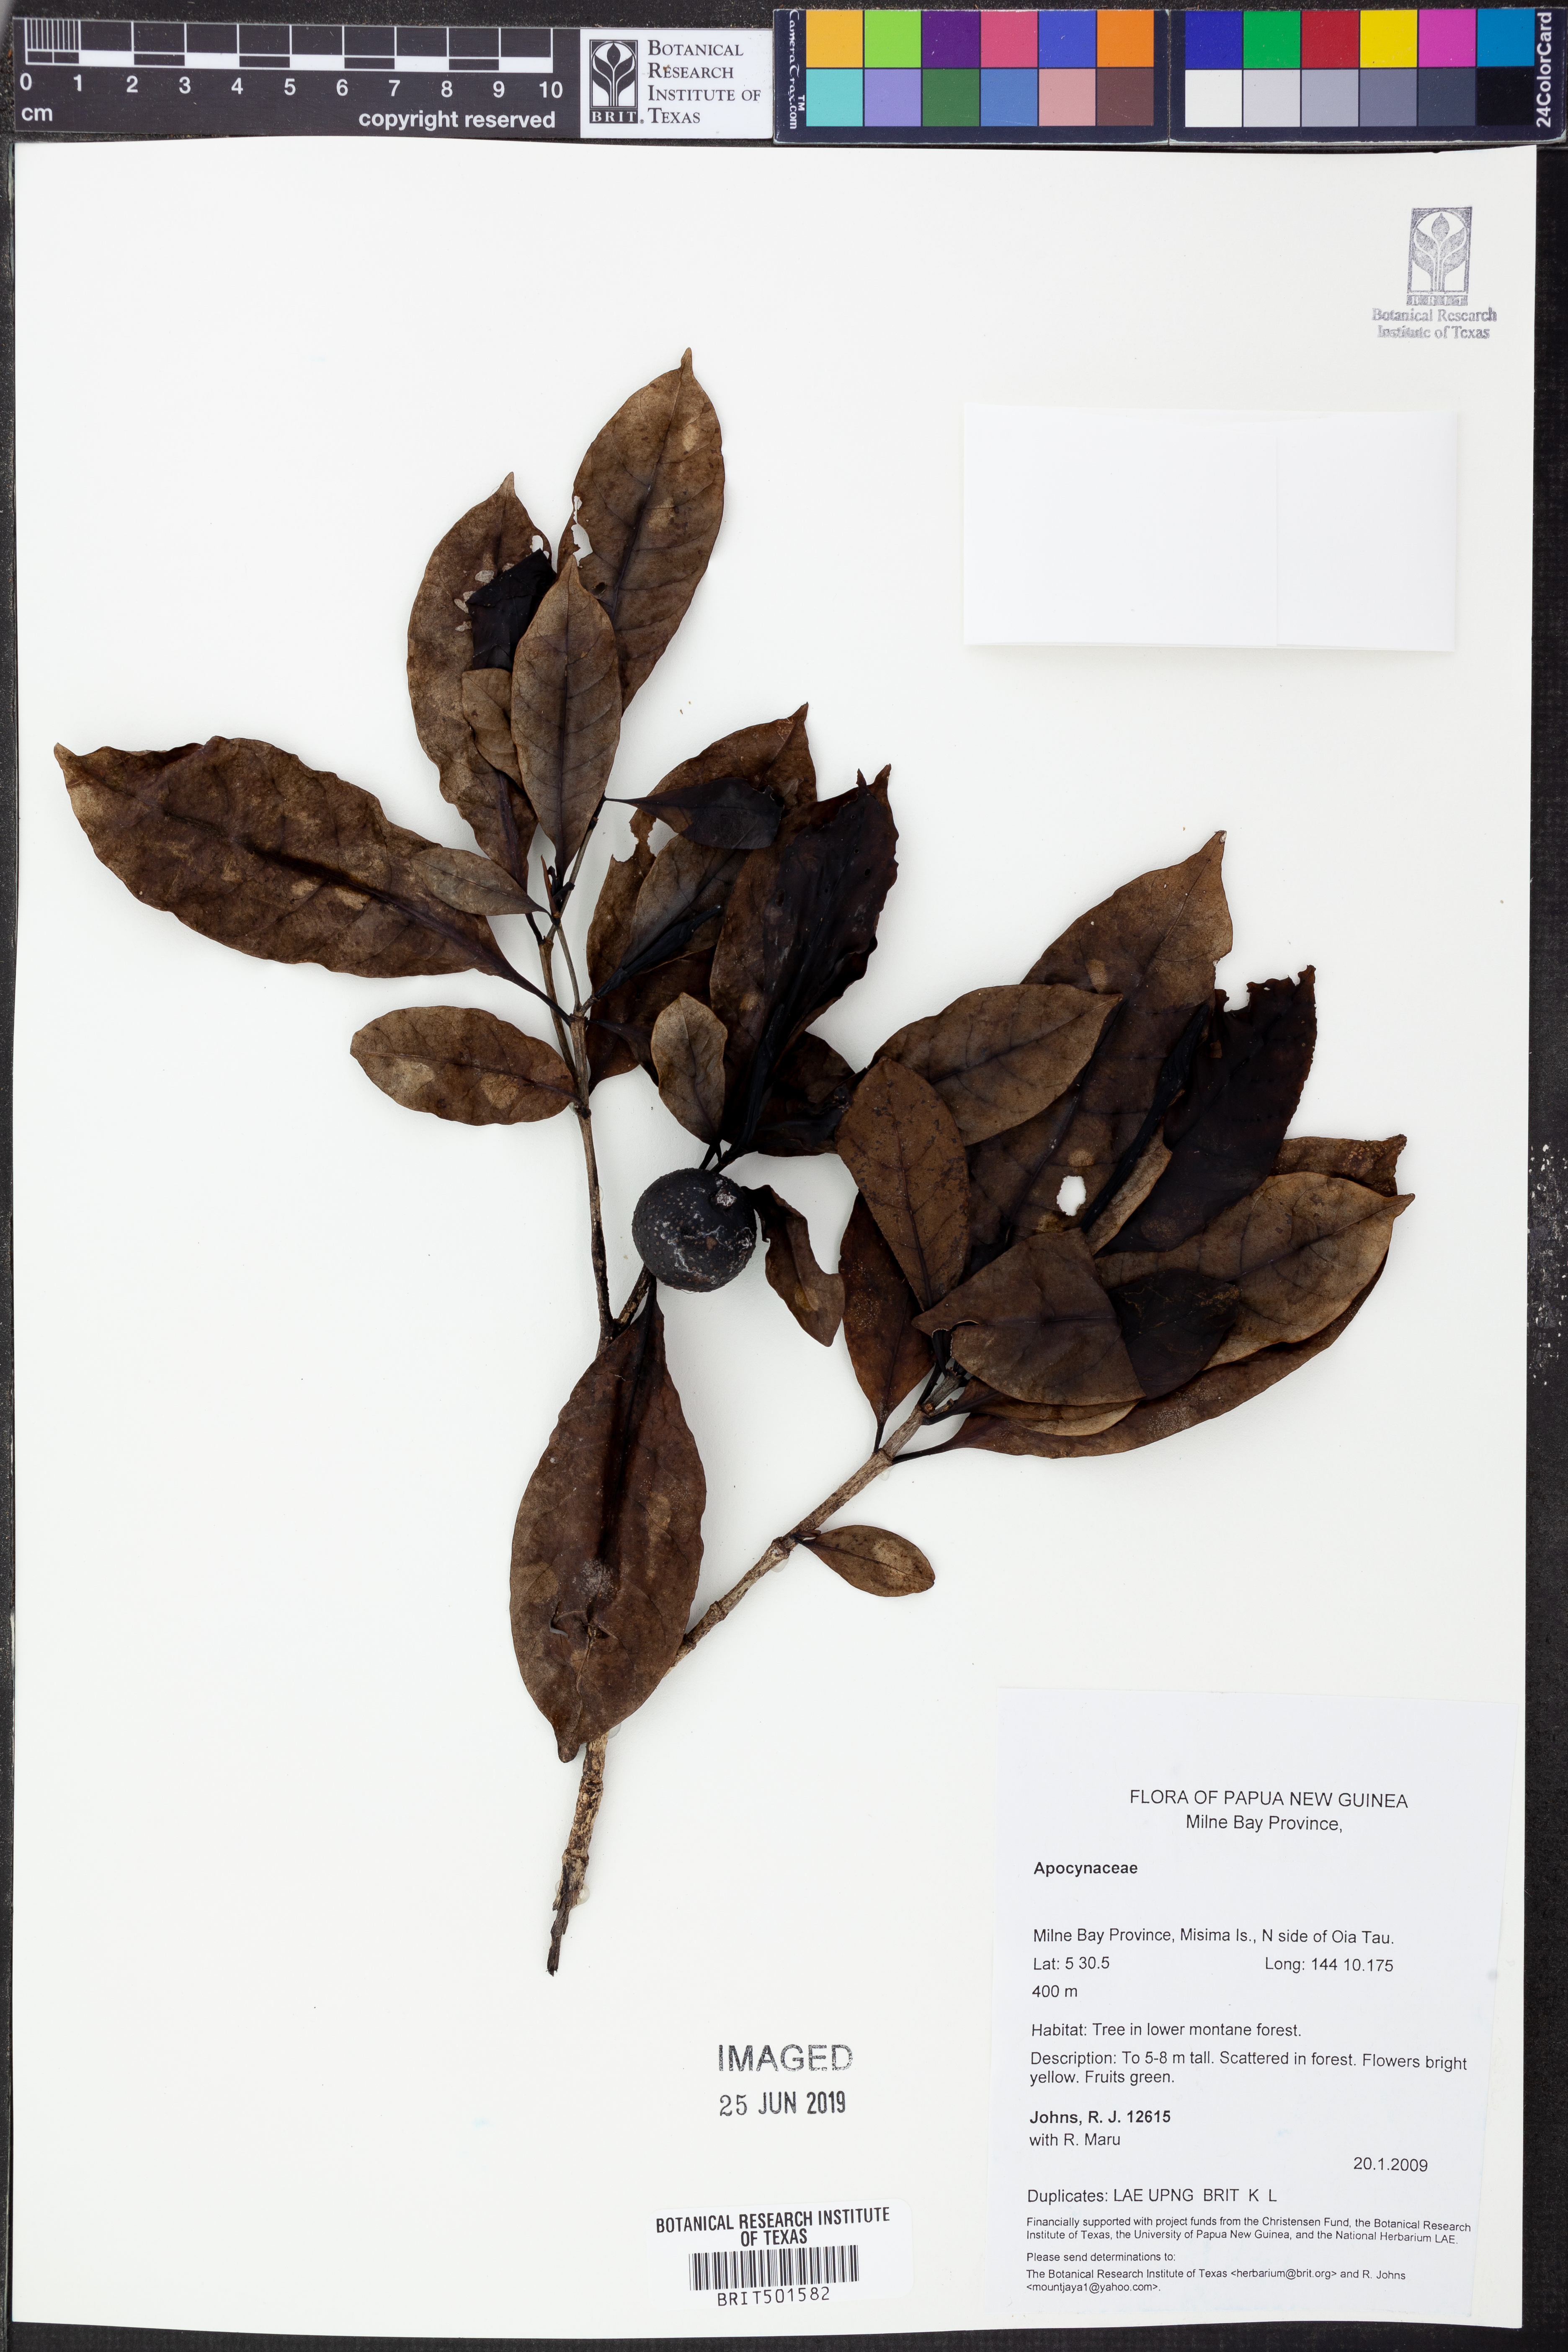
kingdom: Plantae
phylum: Tracheophyta
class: Magnoliopsida
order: Gentianales
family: Apocynaceae
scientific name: Apocynaceae
